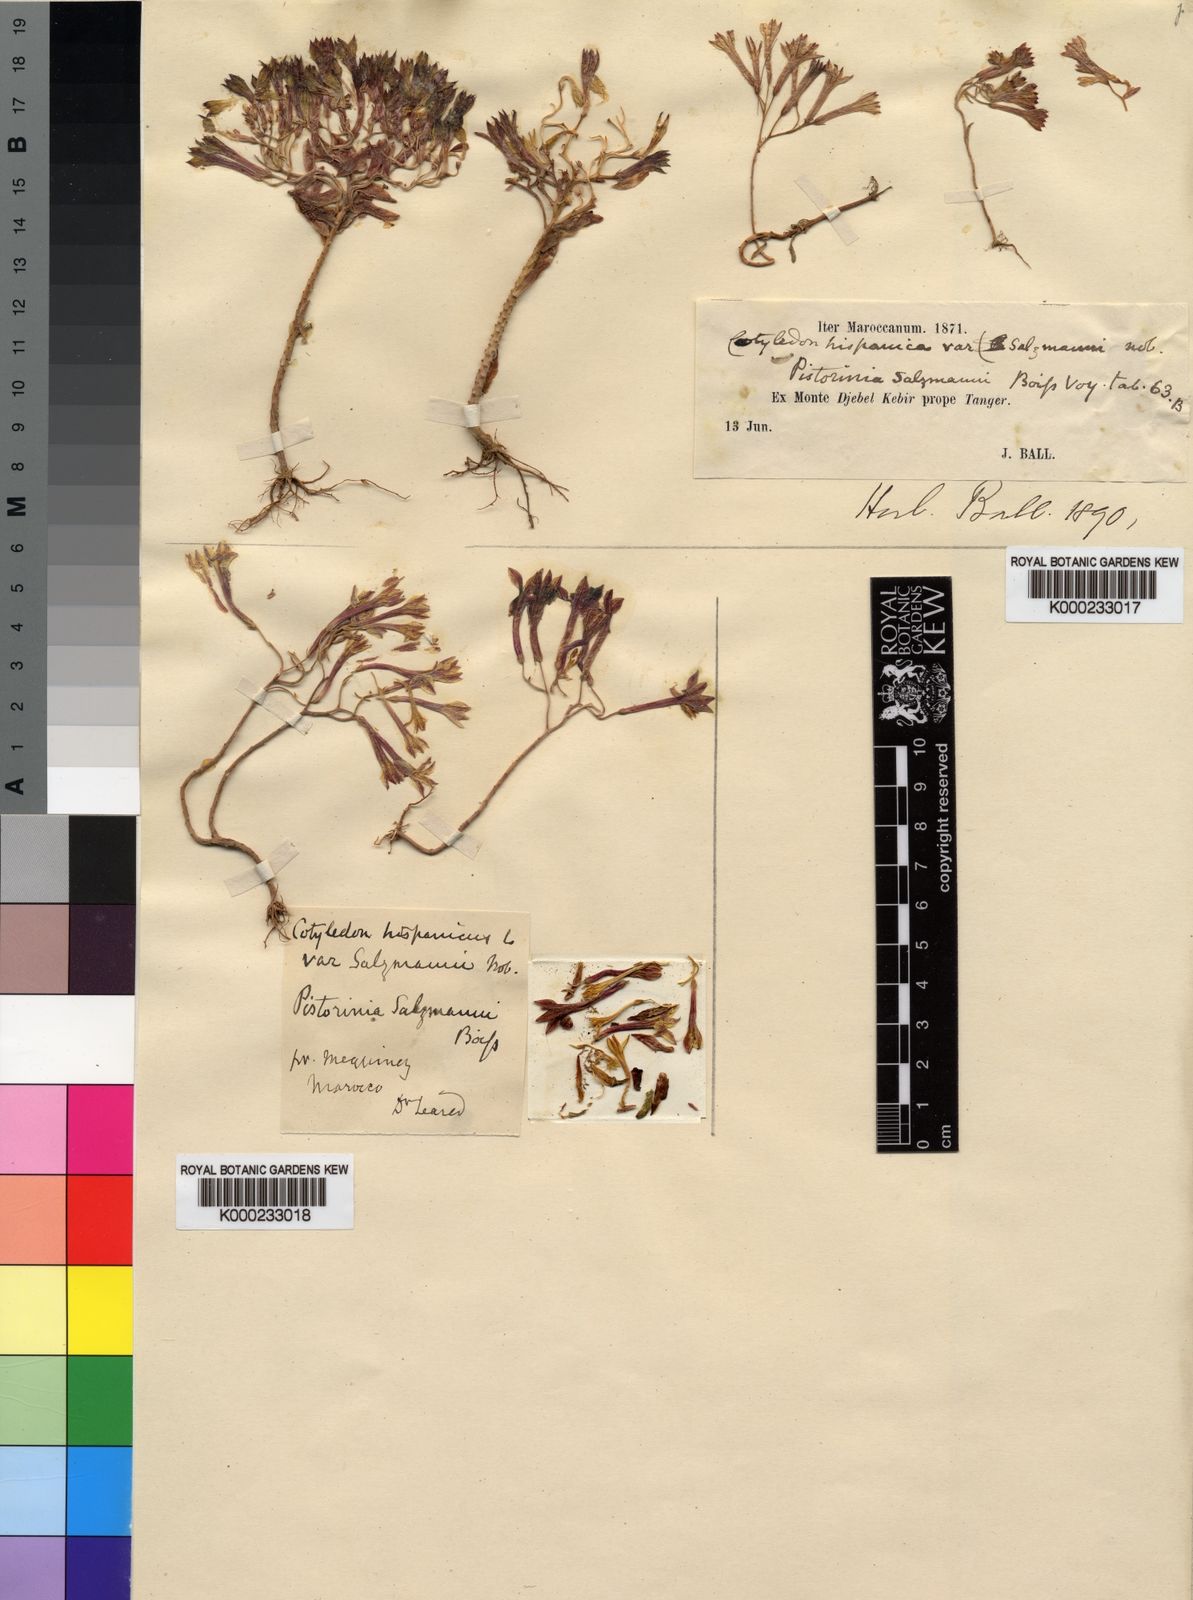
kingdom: Plantae
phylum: Tracheophyta
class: Magnoliopsida
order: Saxifragales
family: Crassulaceae
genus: Pistorinia
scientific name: Pistorinia
